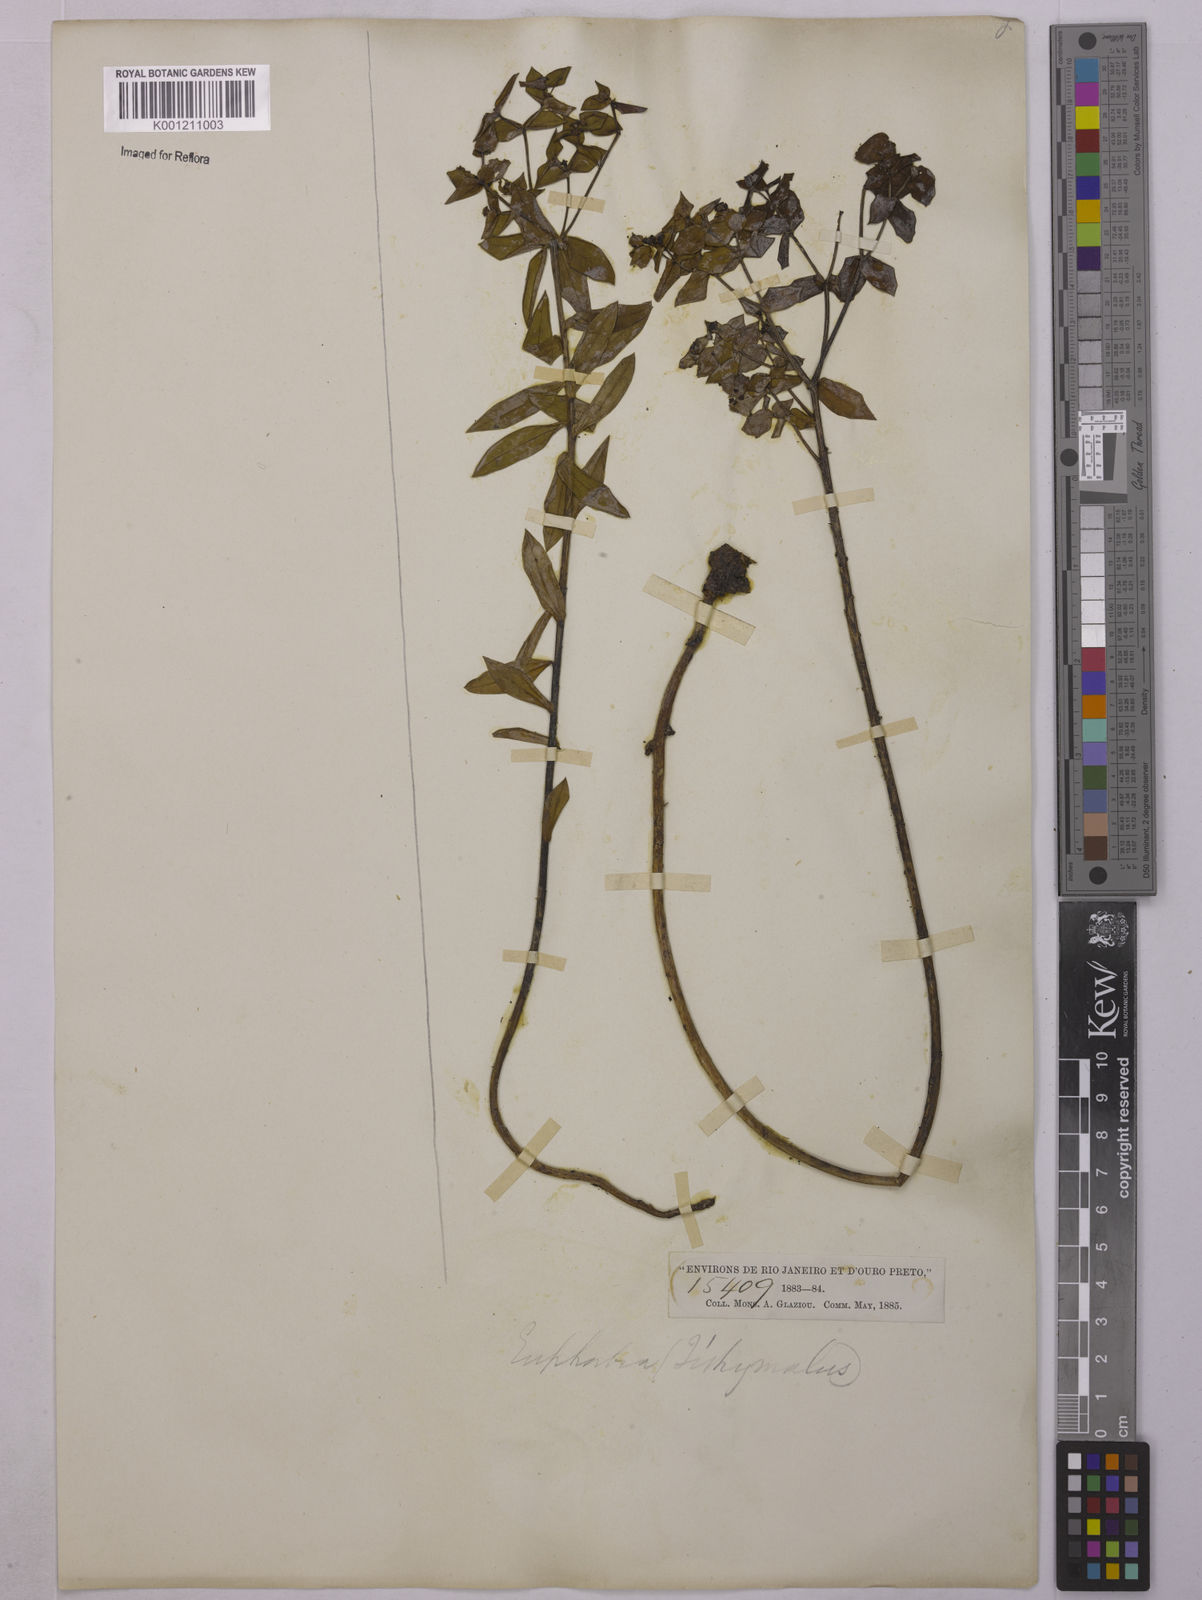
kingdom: Plantae
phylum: Tracheophyta
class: Magnoliopsida
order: Malpighiales
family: Euphorbiaceae
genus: Euphorbia
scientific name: Euphorbia
